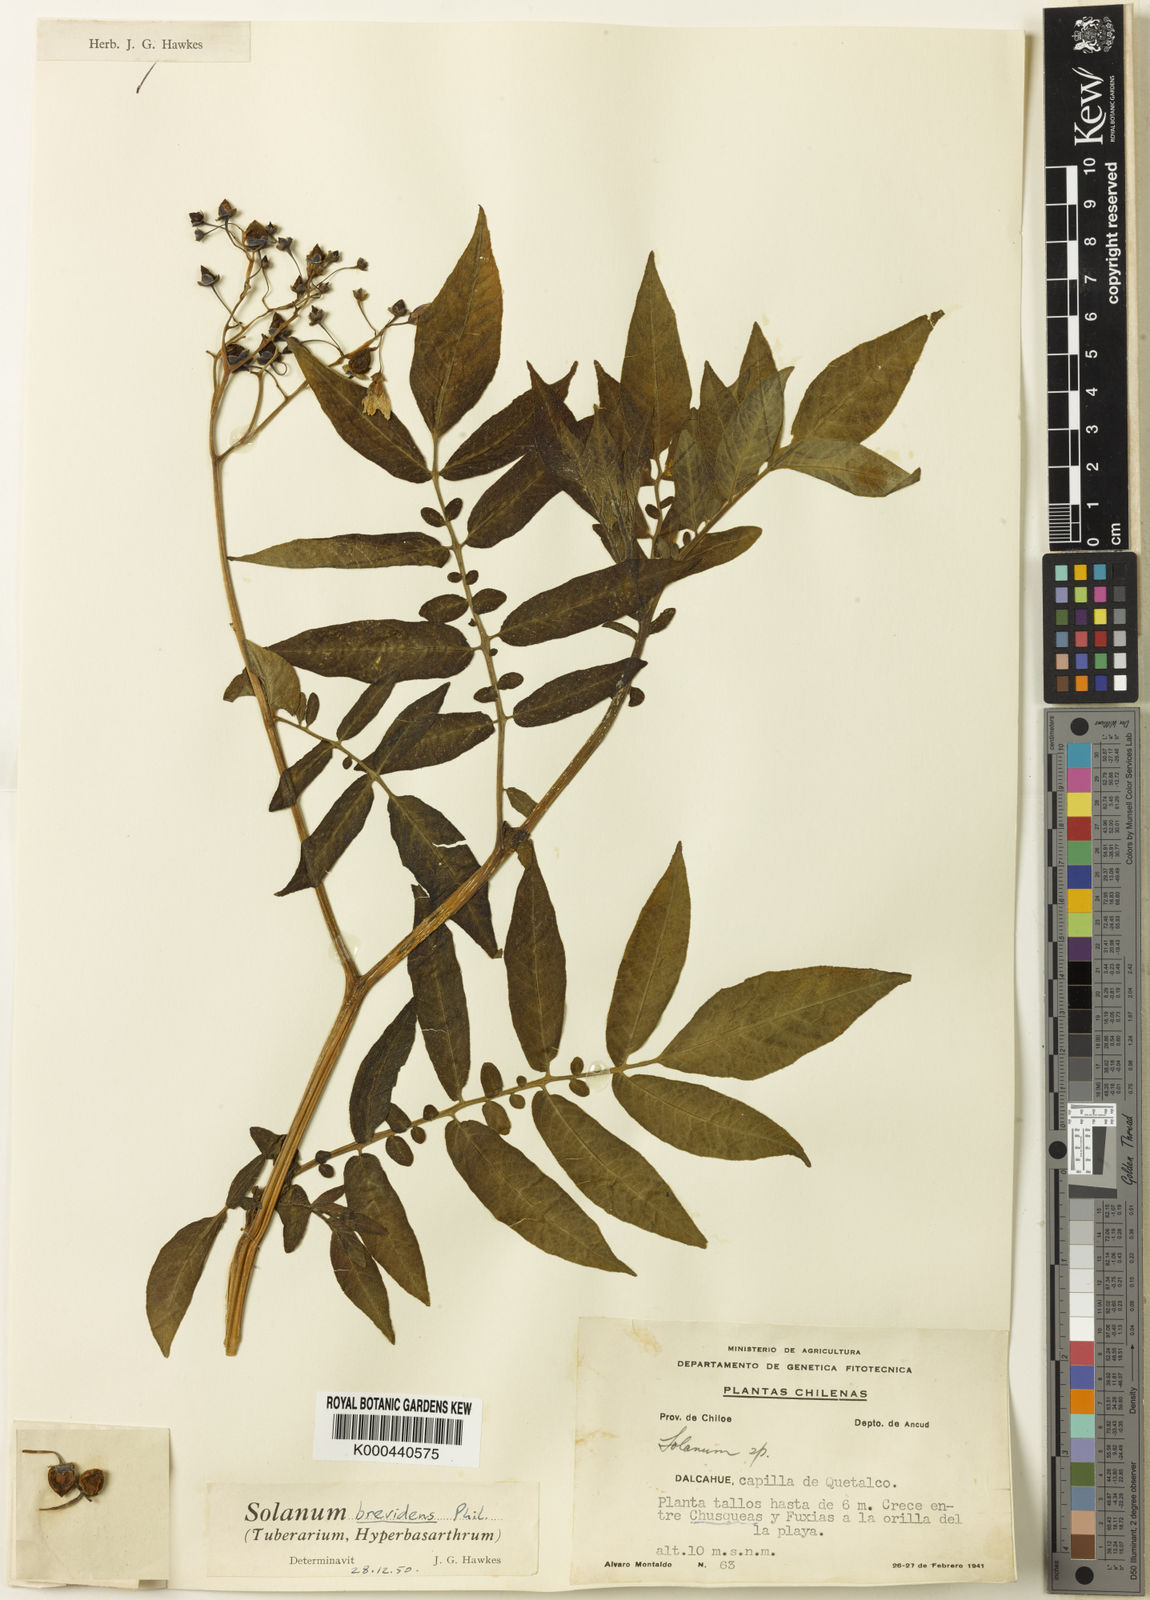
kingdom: Plantae
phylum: Tracheophyta
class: Magnoliopsida
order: Solanales
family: Solanaceae
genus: Solanum
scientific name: Solanum palustre
